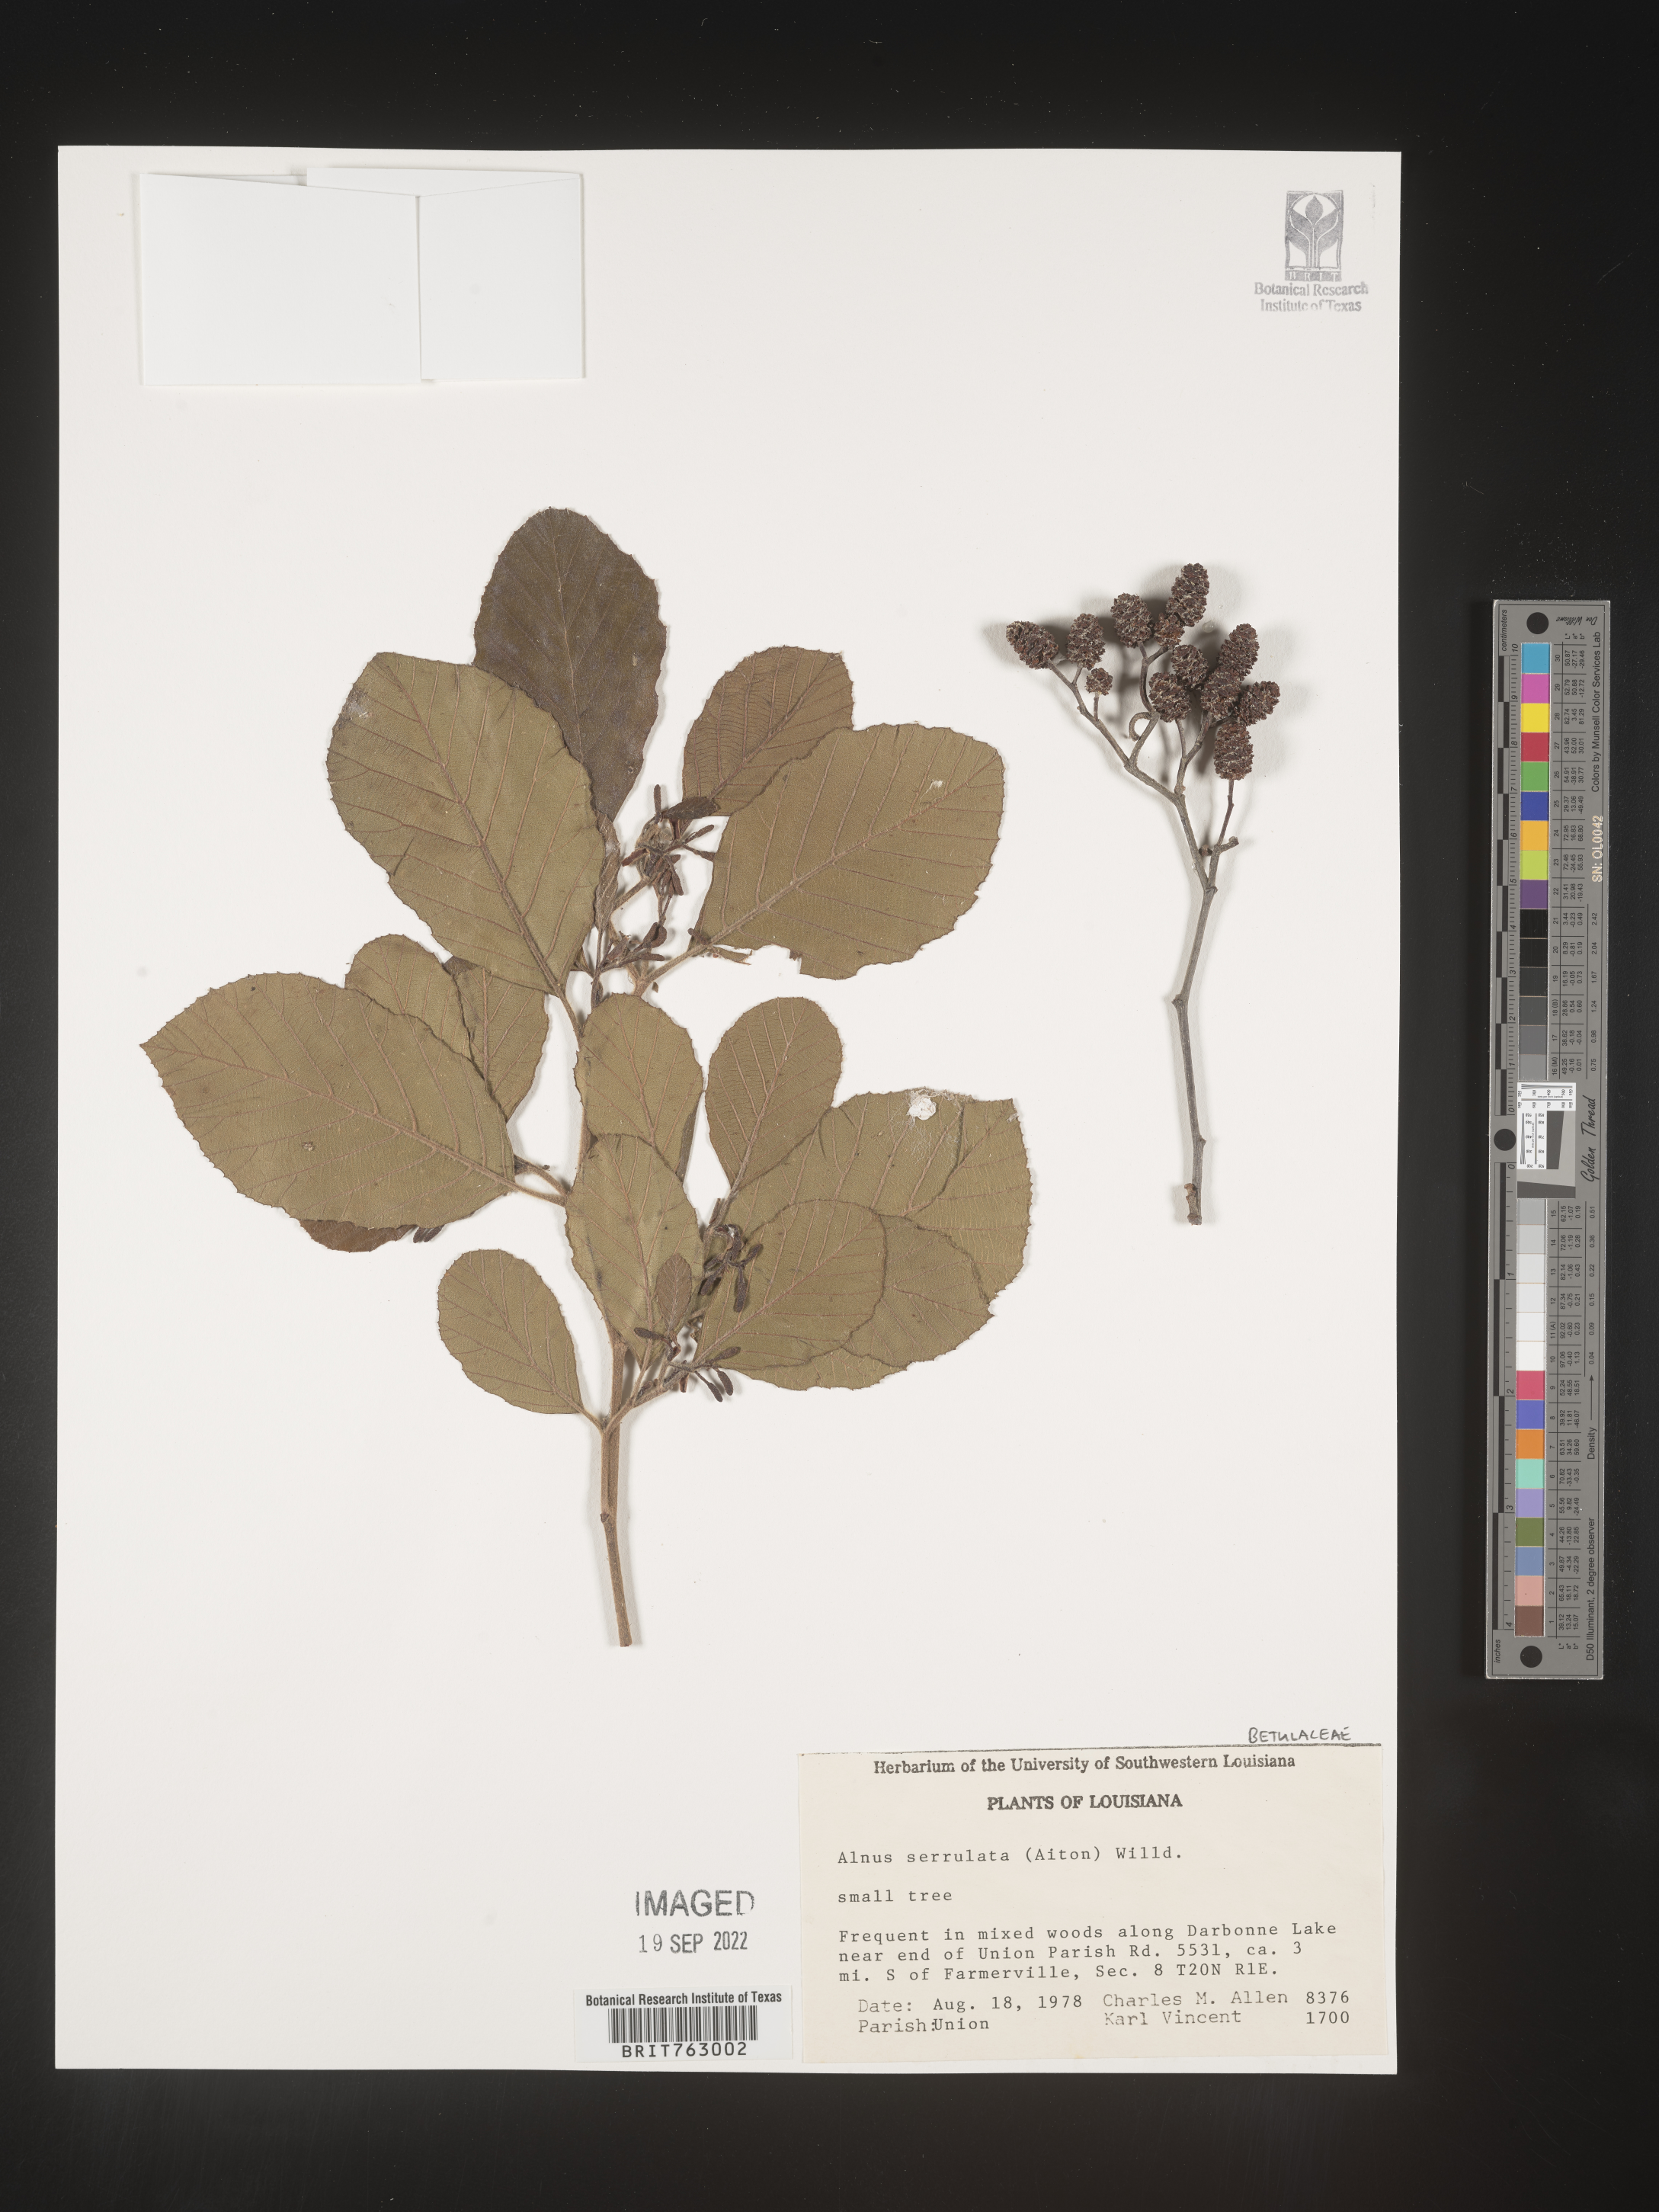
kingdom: Plantae
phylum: Tracheophyta
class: Magnoliopsida
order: Fagales
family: Betulaceae
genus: Alnus
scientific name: Alnus serrulata
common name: Hazel alder
